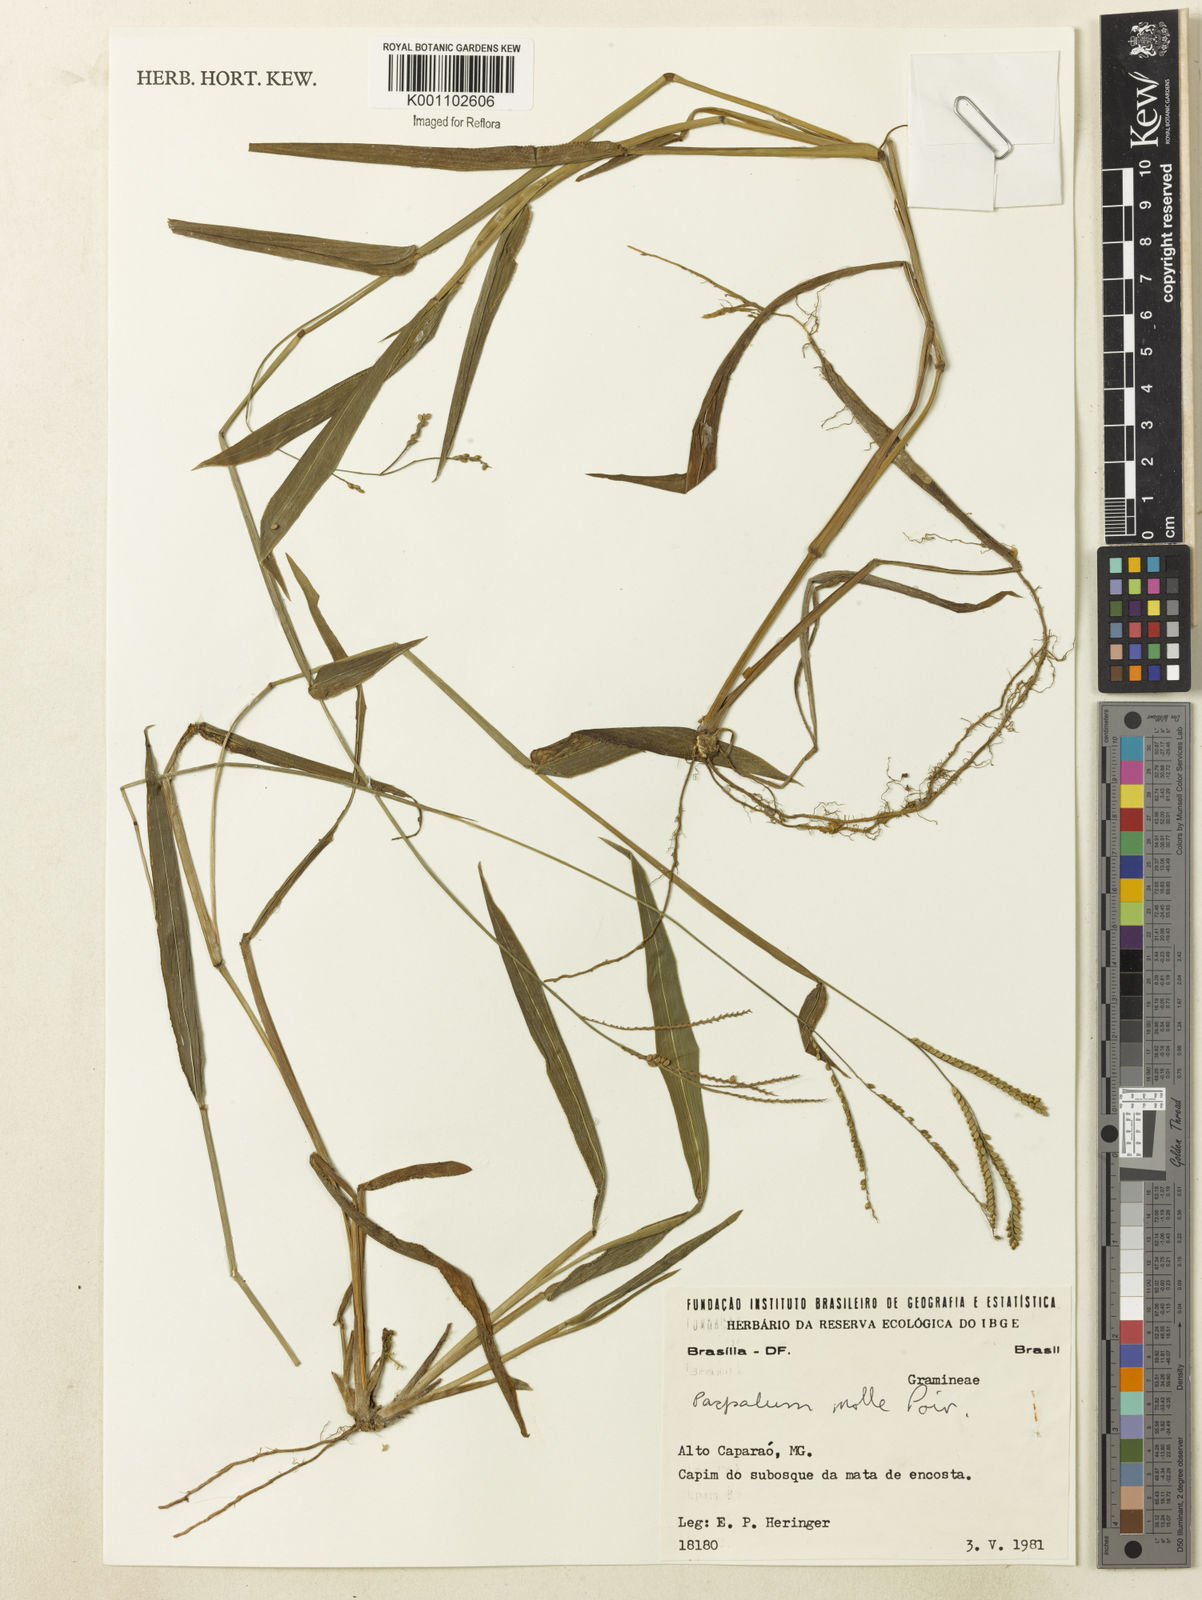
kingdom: Plantae
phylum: Tracheophyta
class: Liliopsida
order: Poales
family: Poaceae
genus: Paspalum
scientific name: Paspalum molle
